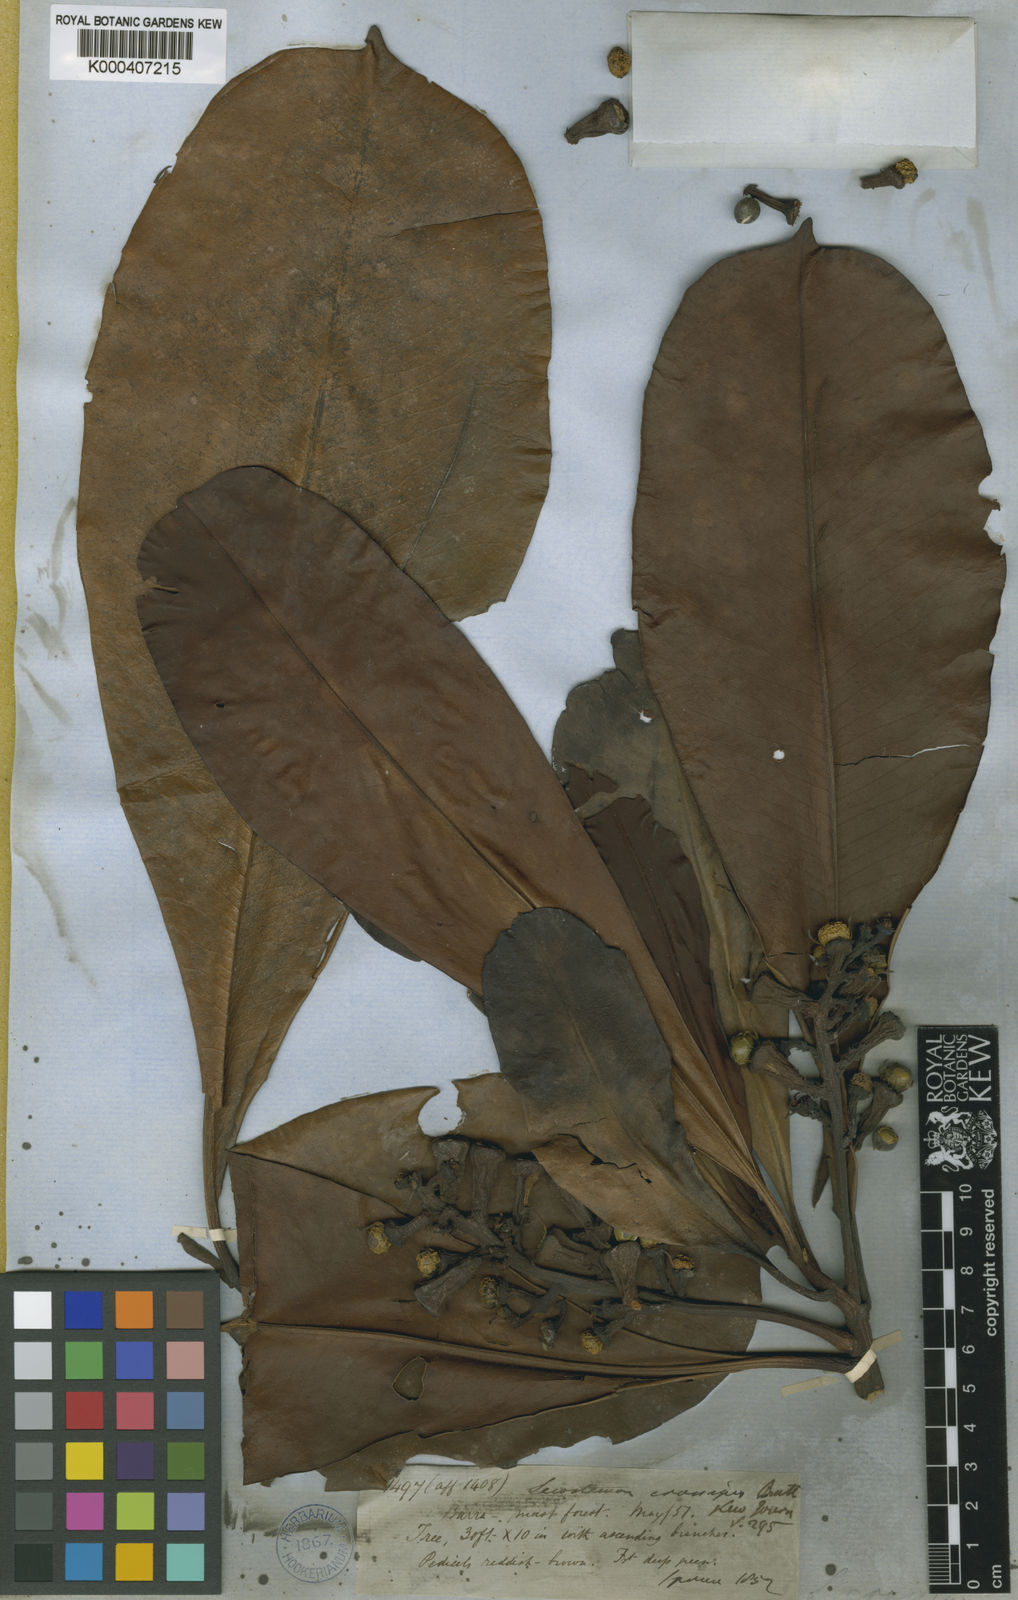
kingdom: Plantae
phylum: Tracheophyta
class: Magnoliopsida
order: Caryophyllales
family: Rhabdodendraceae
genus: Rhabdodendron
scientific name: Rhabdodendron amazonicum
